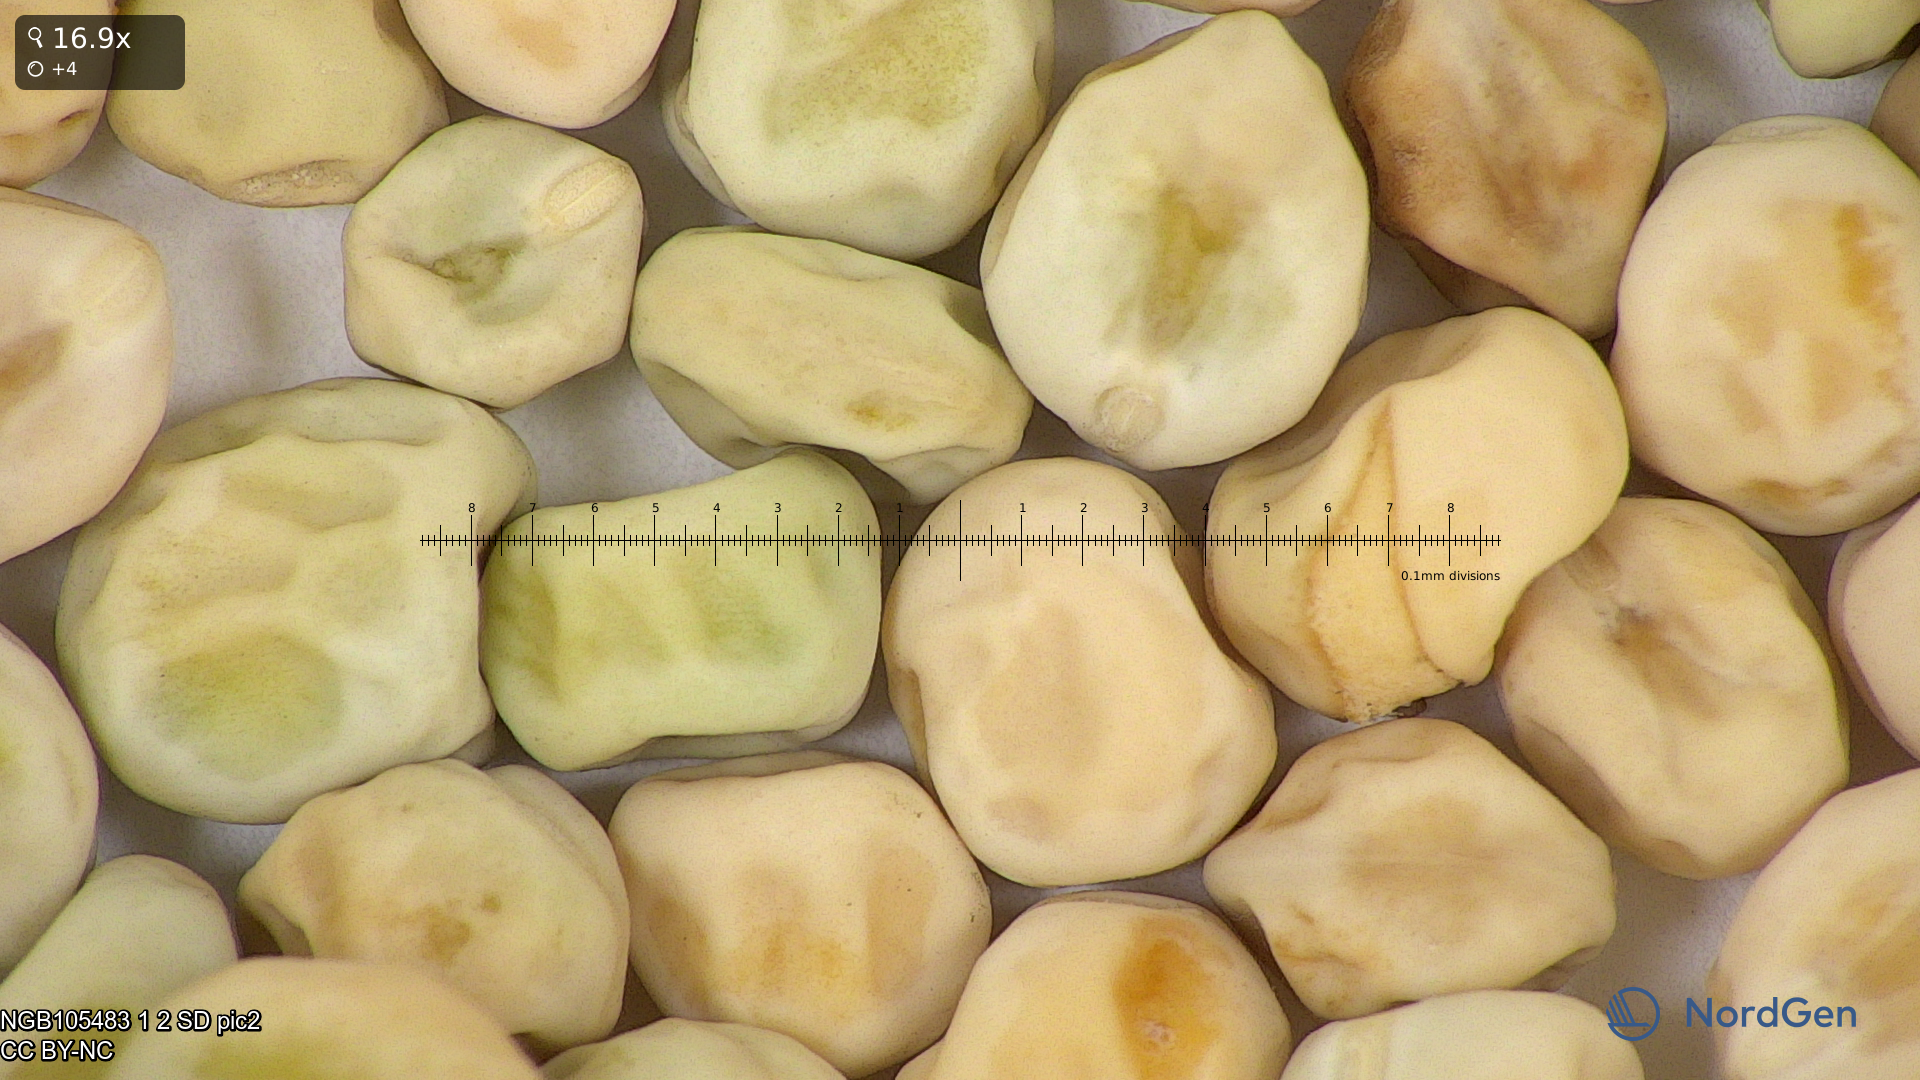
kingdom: Plantae
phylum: Tracheophyta
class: Magnoliopsida
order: Fabales
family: Fabaceae
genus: Lathyrus
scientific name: Lathyrus oleraceus
